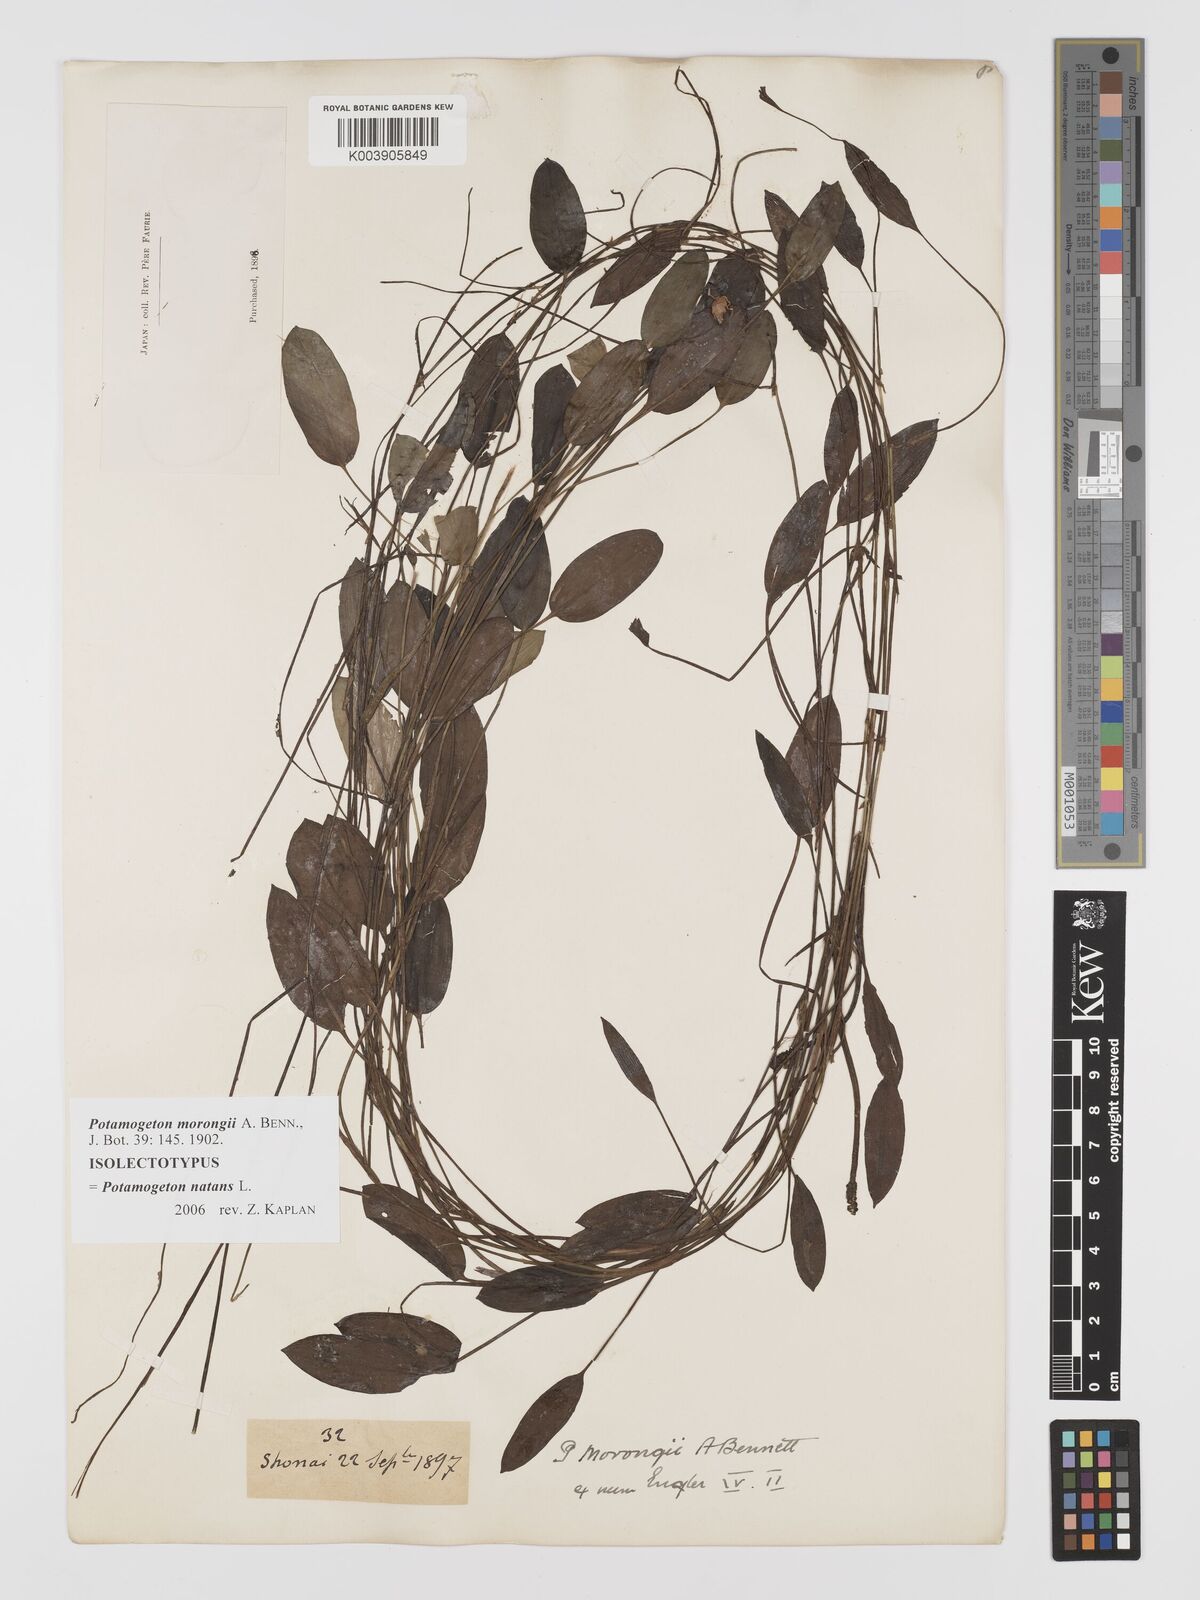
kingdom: Plantae
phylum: Tracheophyta
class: Liliopsida
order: Alismatales
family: Potamogetonaceae
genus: Potamogeton
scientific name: Potamogeton natans
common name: Broad-leaved pondweed
